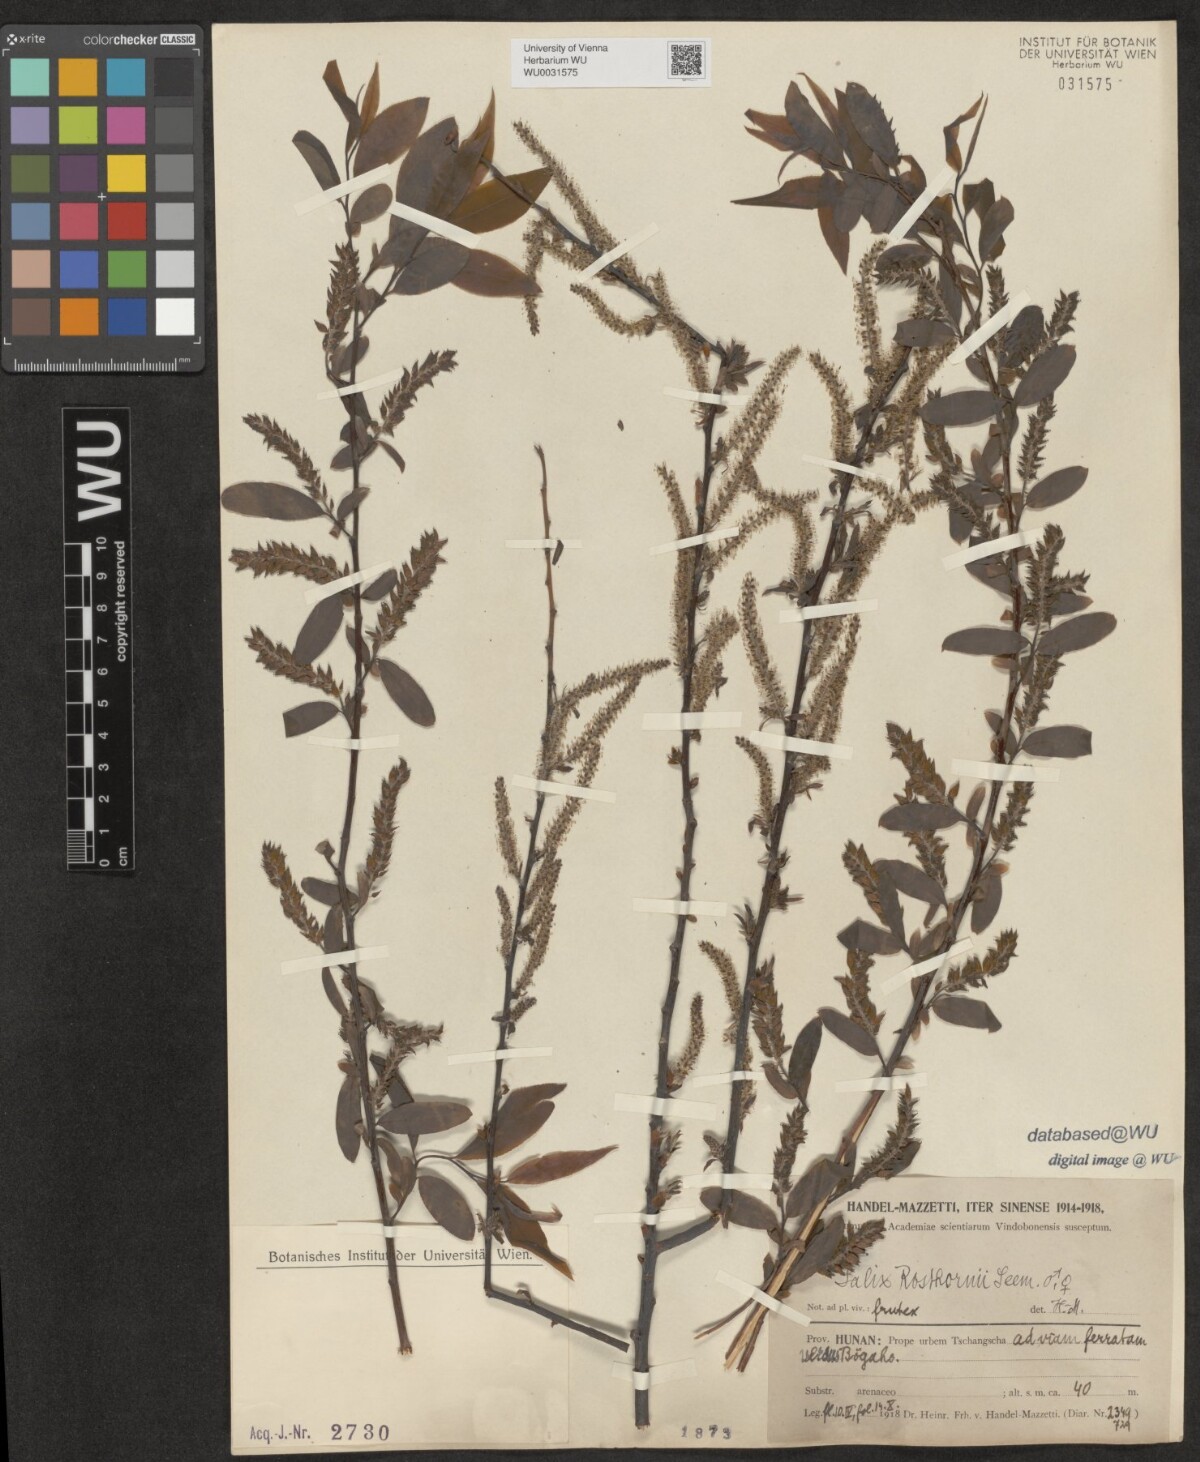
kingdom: Plantae
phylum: Tracheophyta
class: Magnoliopsida
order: Malpighiales
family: Salicaceae
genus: Salix
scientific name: Salix rosthornii
